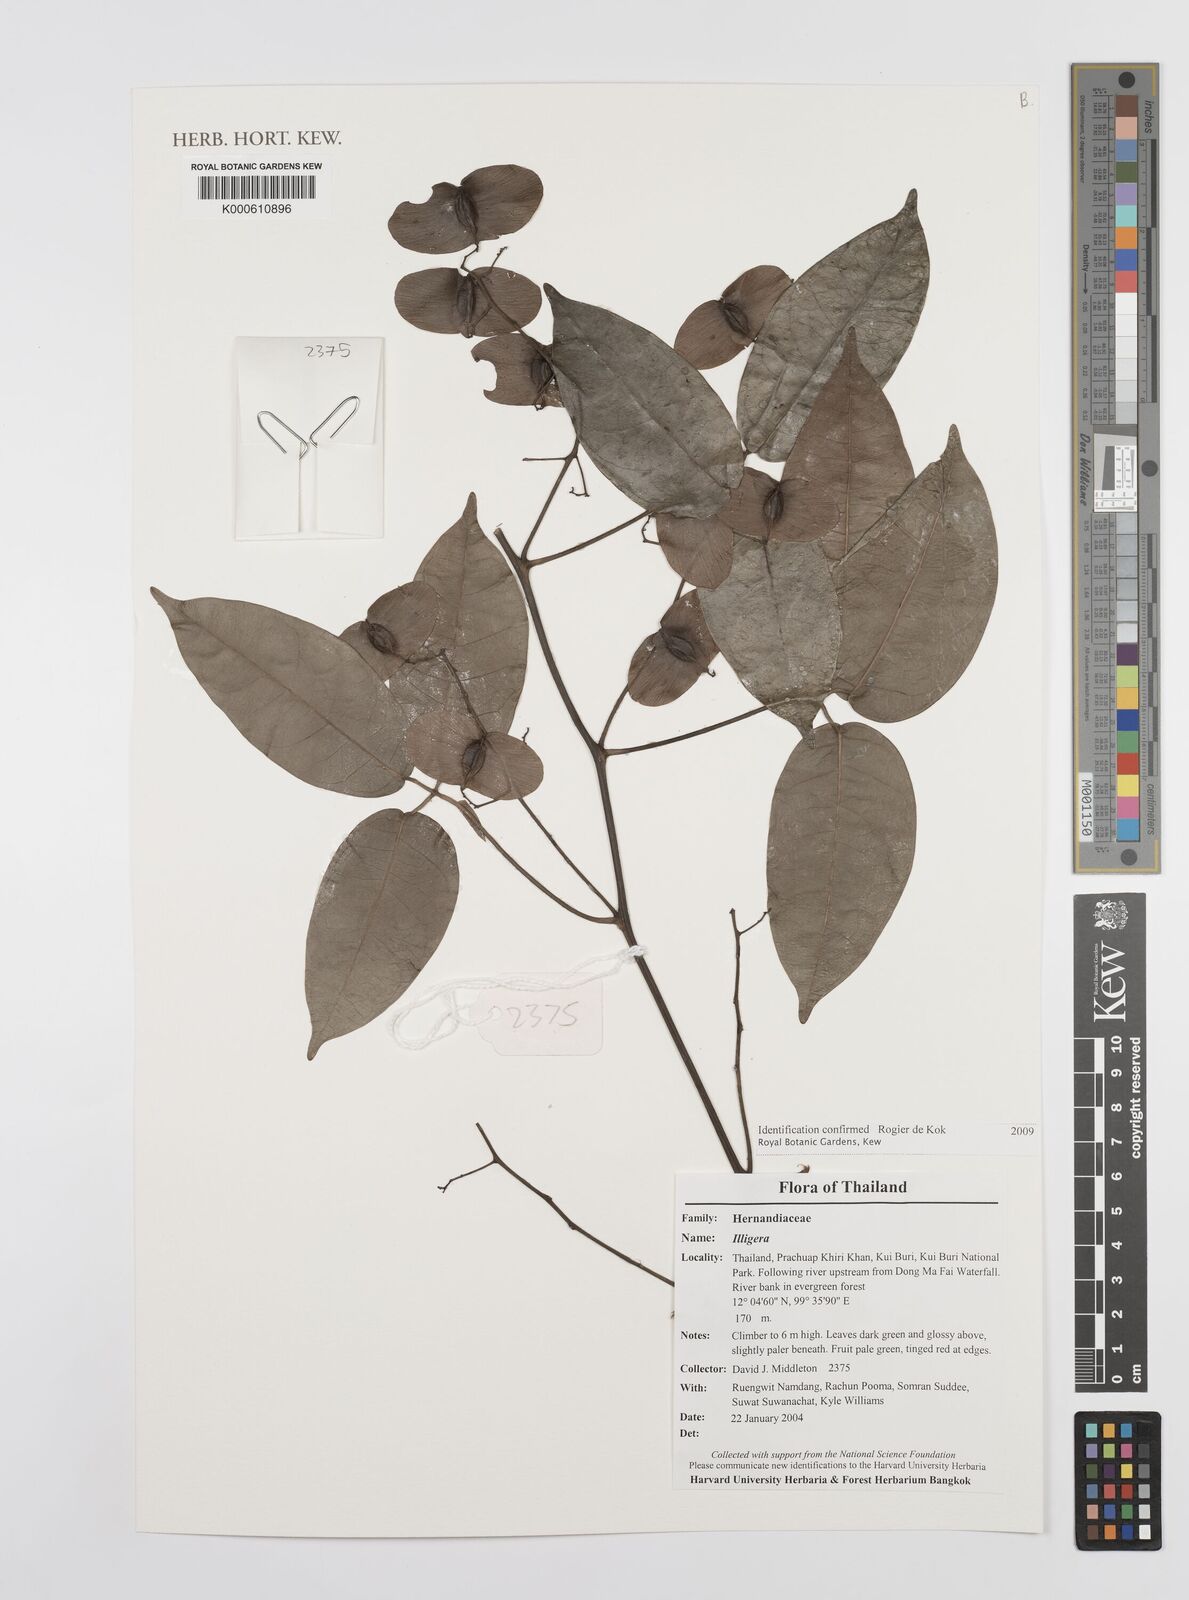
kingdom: Plantae
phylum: Tracheophyta
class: Magnoliopsida
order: Laurales
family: Hernandiaceae
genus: Illigera
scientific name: Illigera
